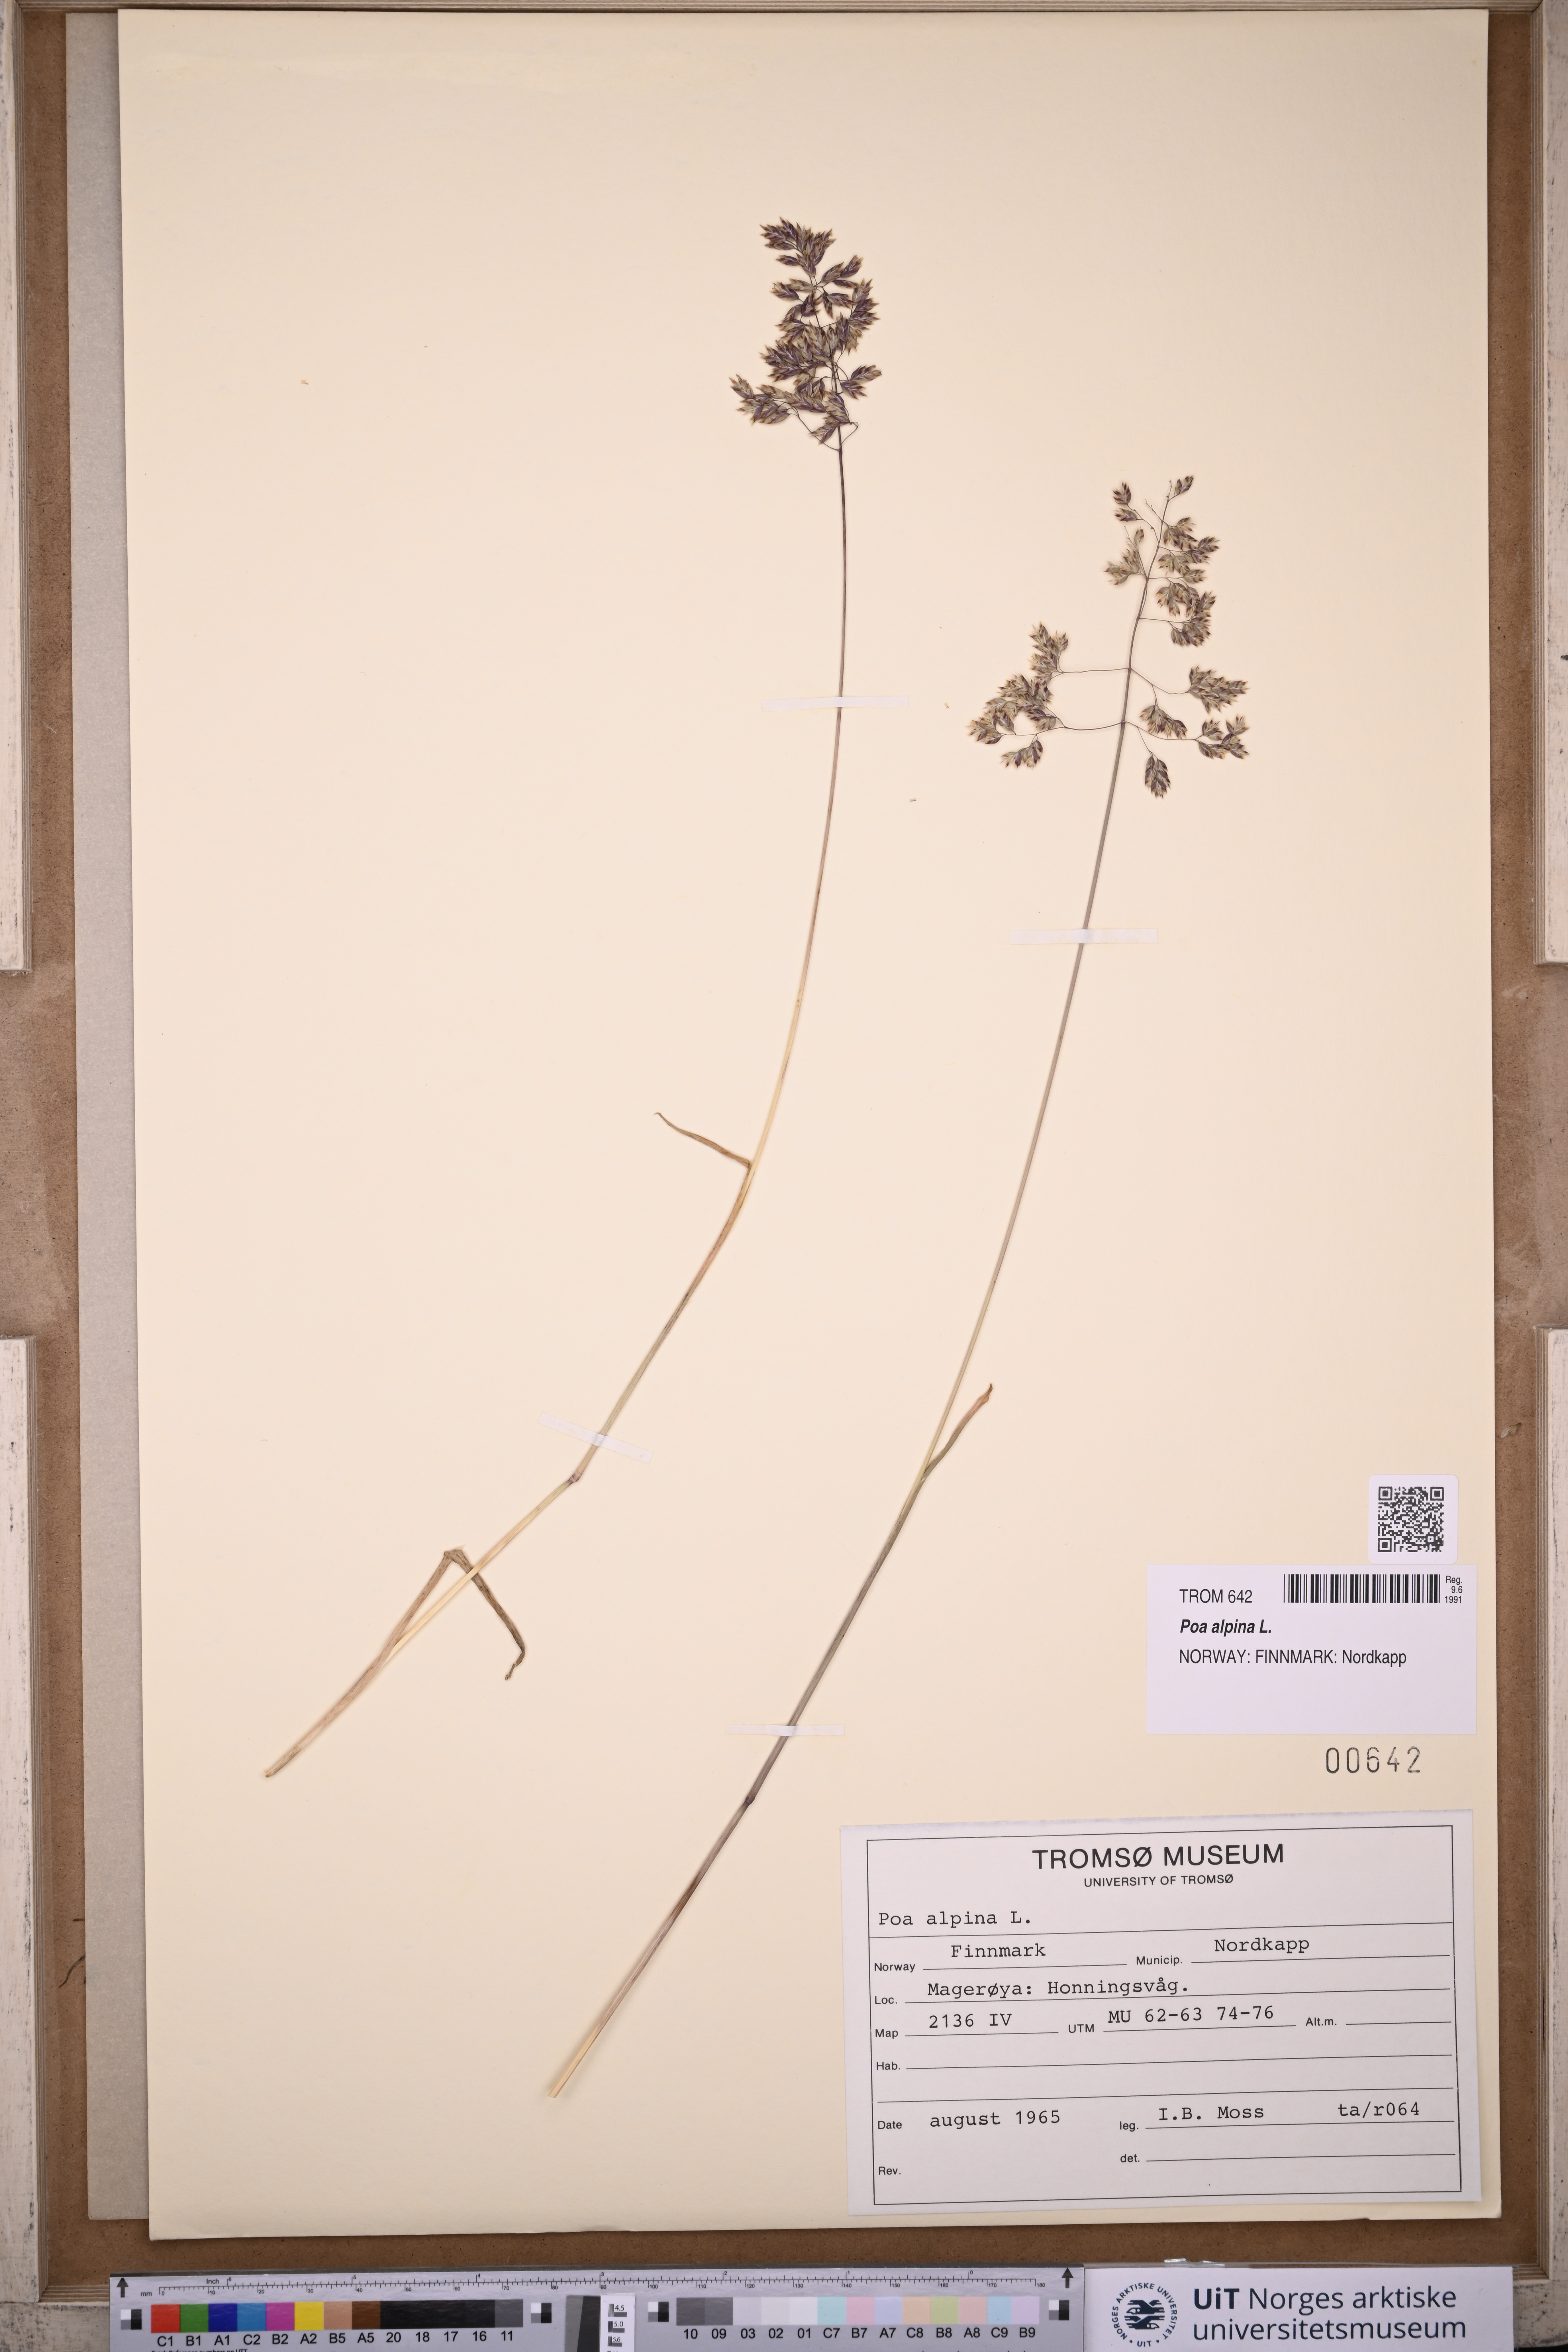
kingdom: Plantae
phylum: Tracheophyta
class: Liliopsida
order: Poales
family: Poaceae
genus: Poa
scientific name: Poa alpina
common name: Alpine bluegrass
